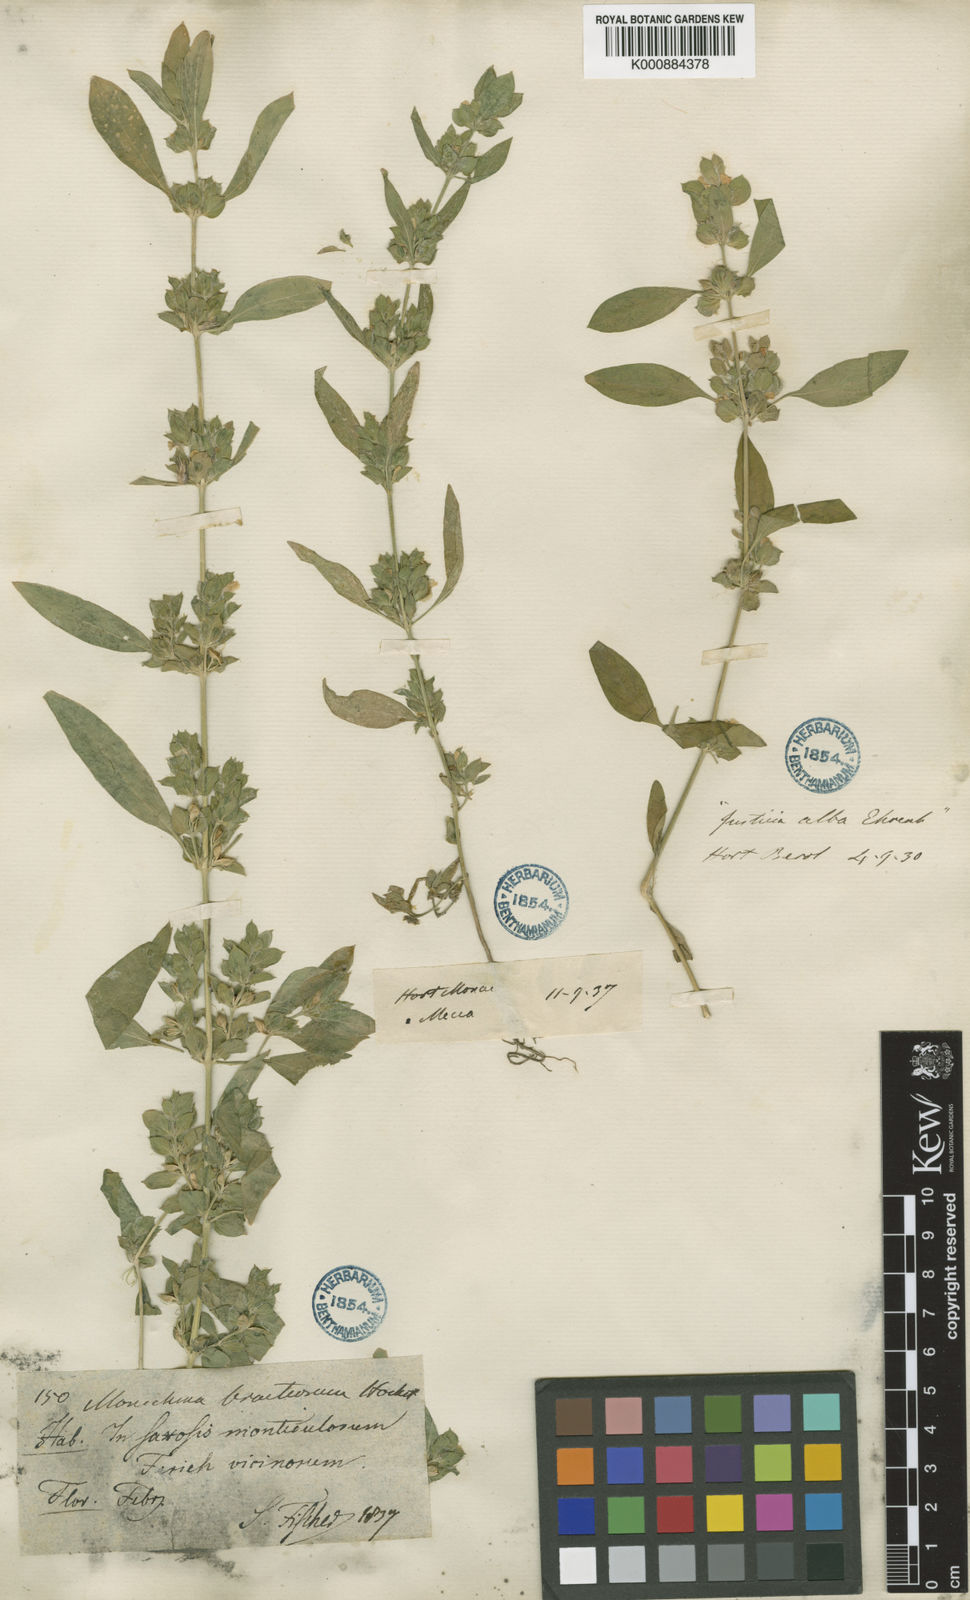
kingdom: Plantae
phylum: Tracheophyta
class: Magnoliopsida
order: Lamiales
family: Acanthaceae
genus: Monechma
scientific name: Monechma debile
